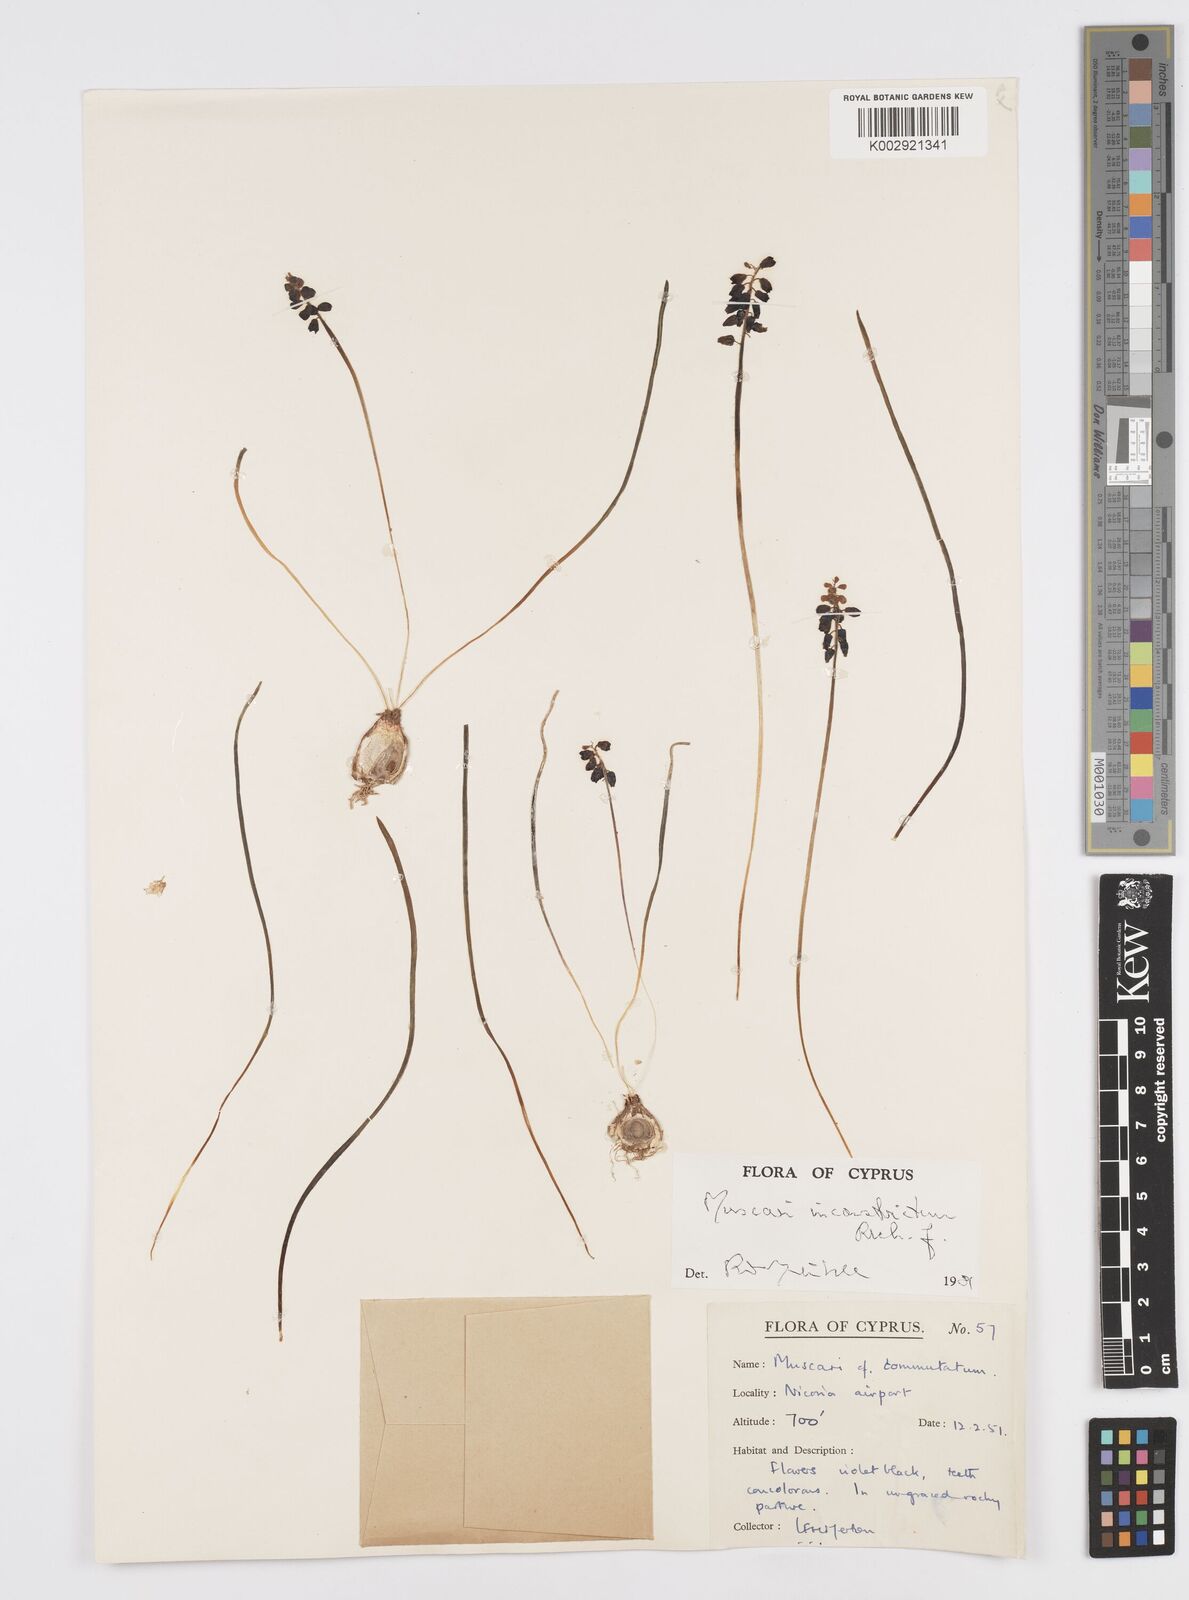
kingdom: Plantae
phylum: Tracheophyta
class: Liliopsida
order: Asparagales
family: Asparagaceae
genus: Muscari
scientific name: Muscari inconstrictum
